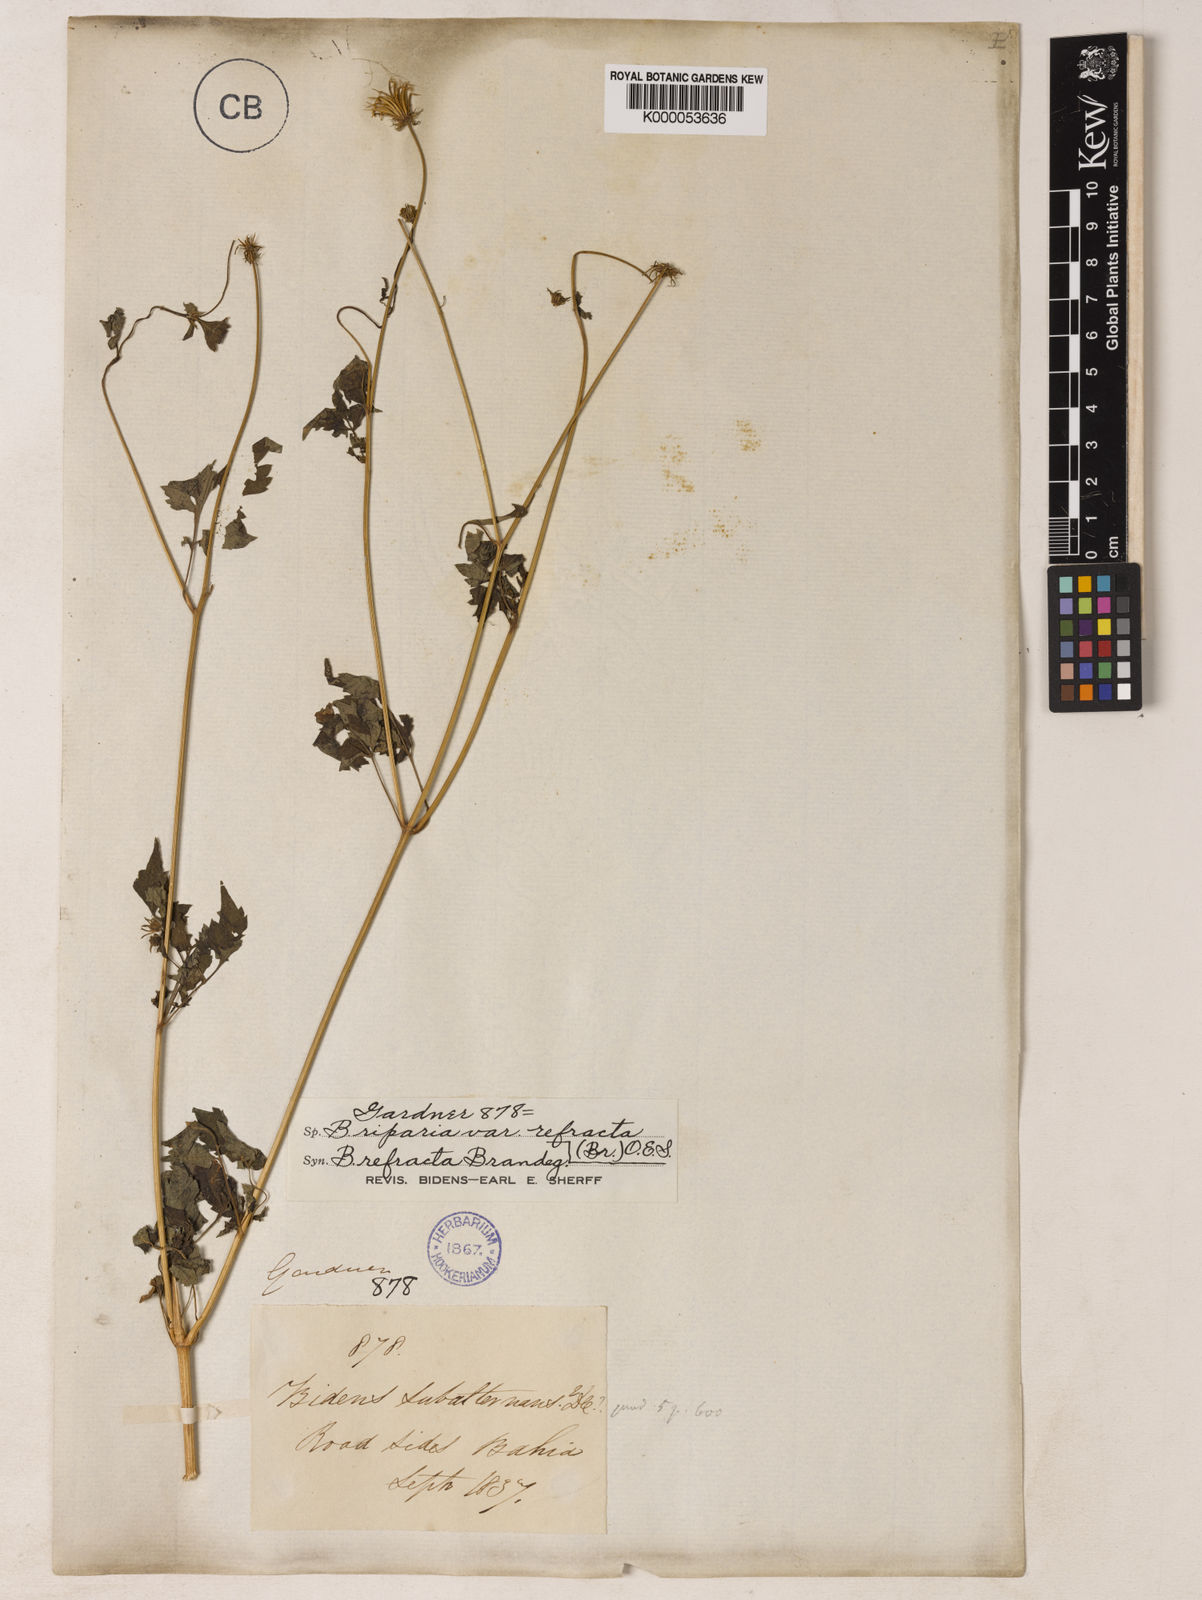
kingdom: Plantae
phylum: Tracheophyta
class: Magnoliopsida
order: Asterales
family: Asteraceae
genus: Bidens
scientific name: Bidens riparia
